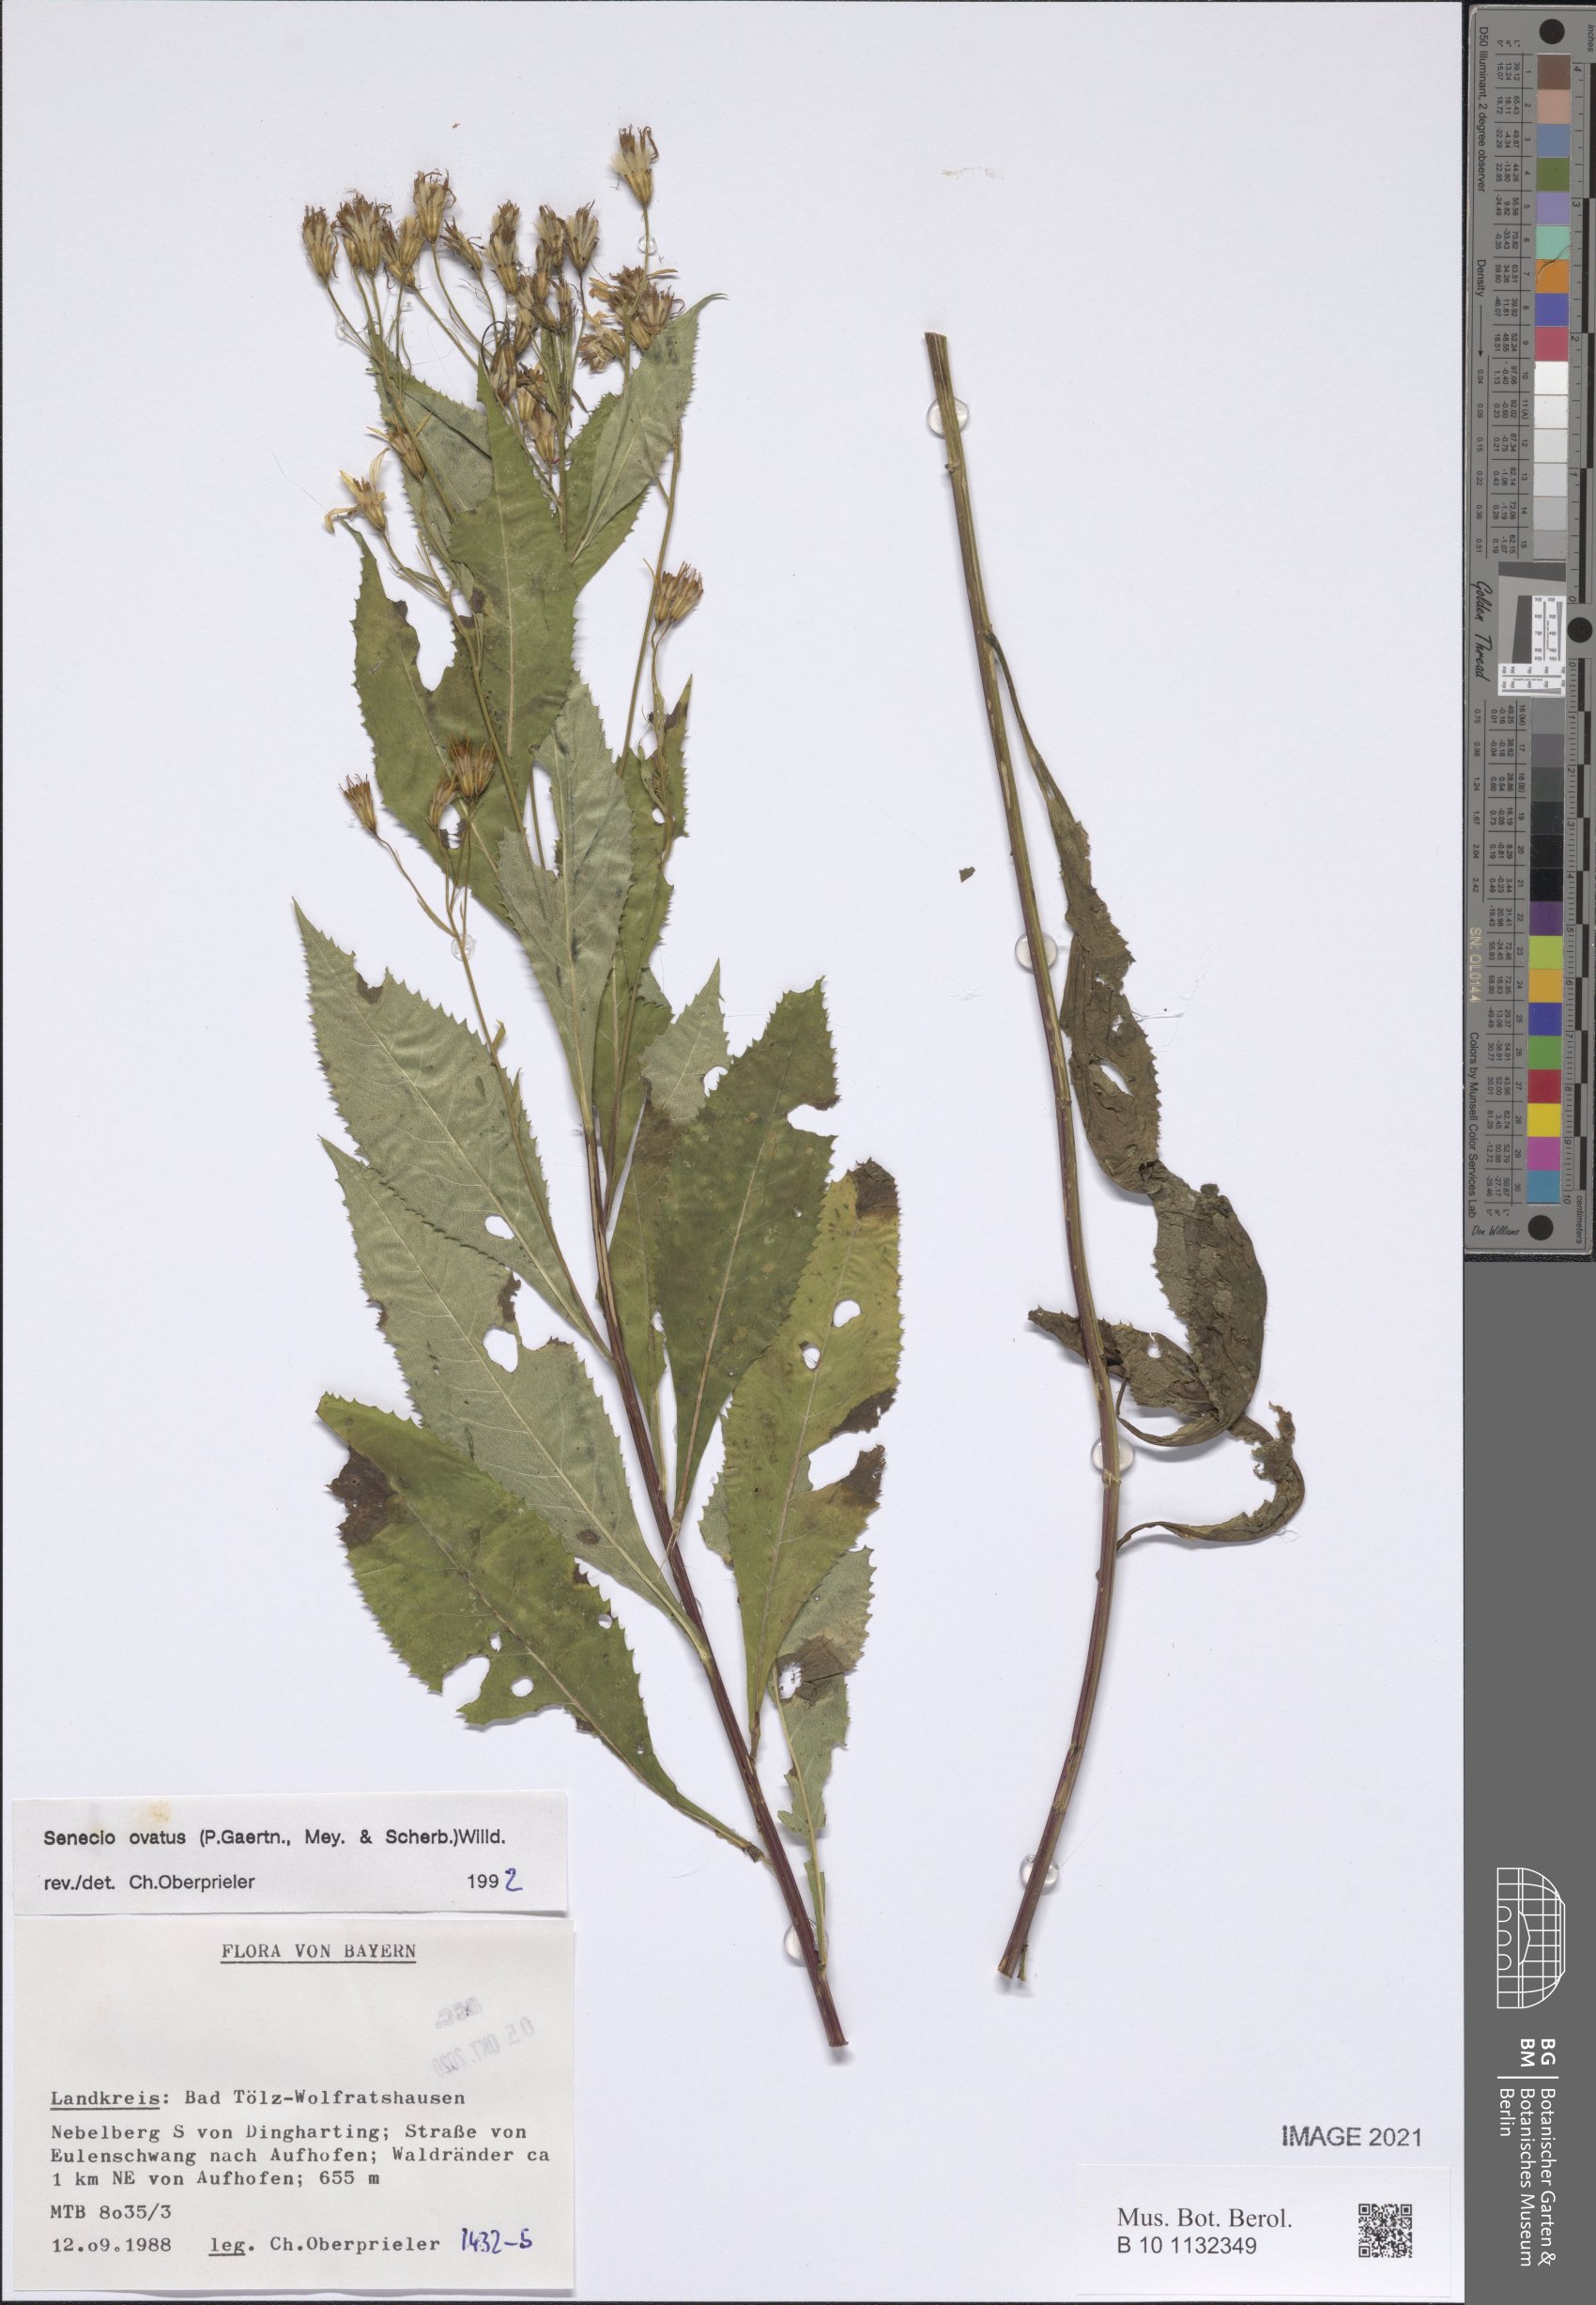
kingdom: Plantae
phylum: Tracheophyta
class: Magnoliopsida
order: Asterales
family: Asteraceae
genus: Senecio
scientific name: Senecio ovatus
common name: Wood ragwort
